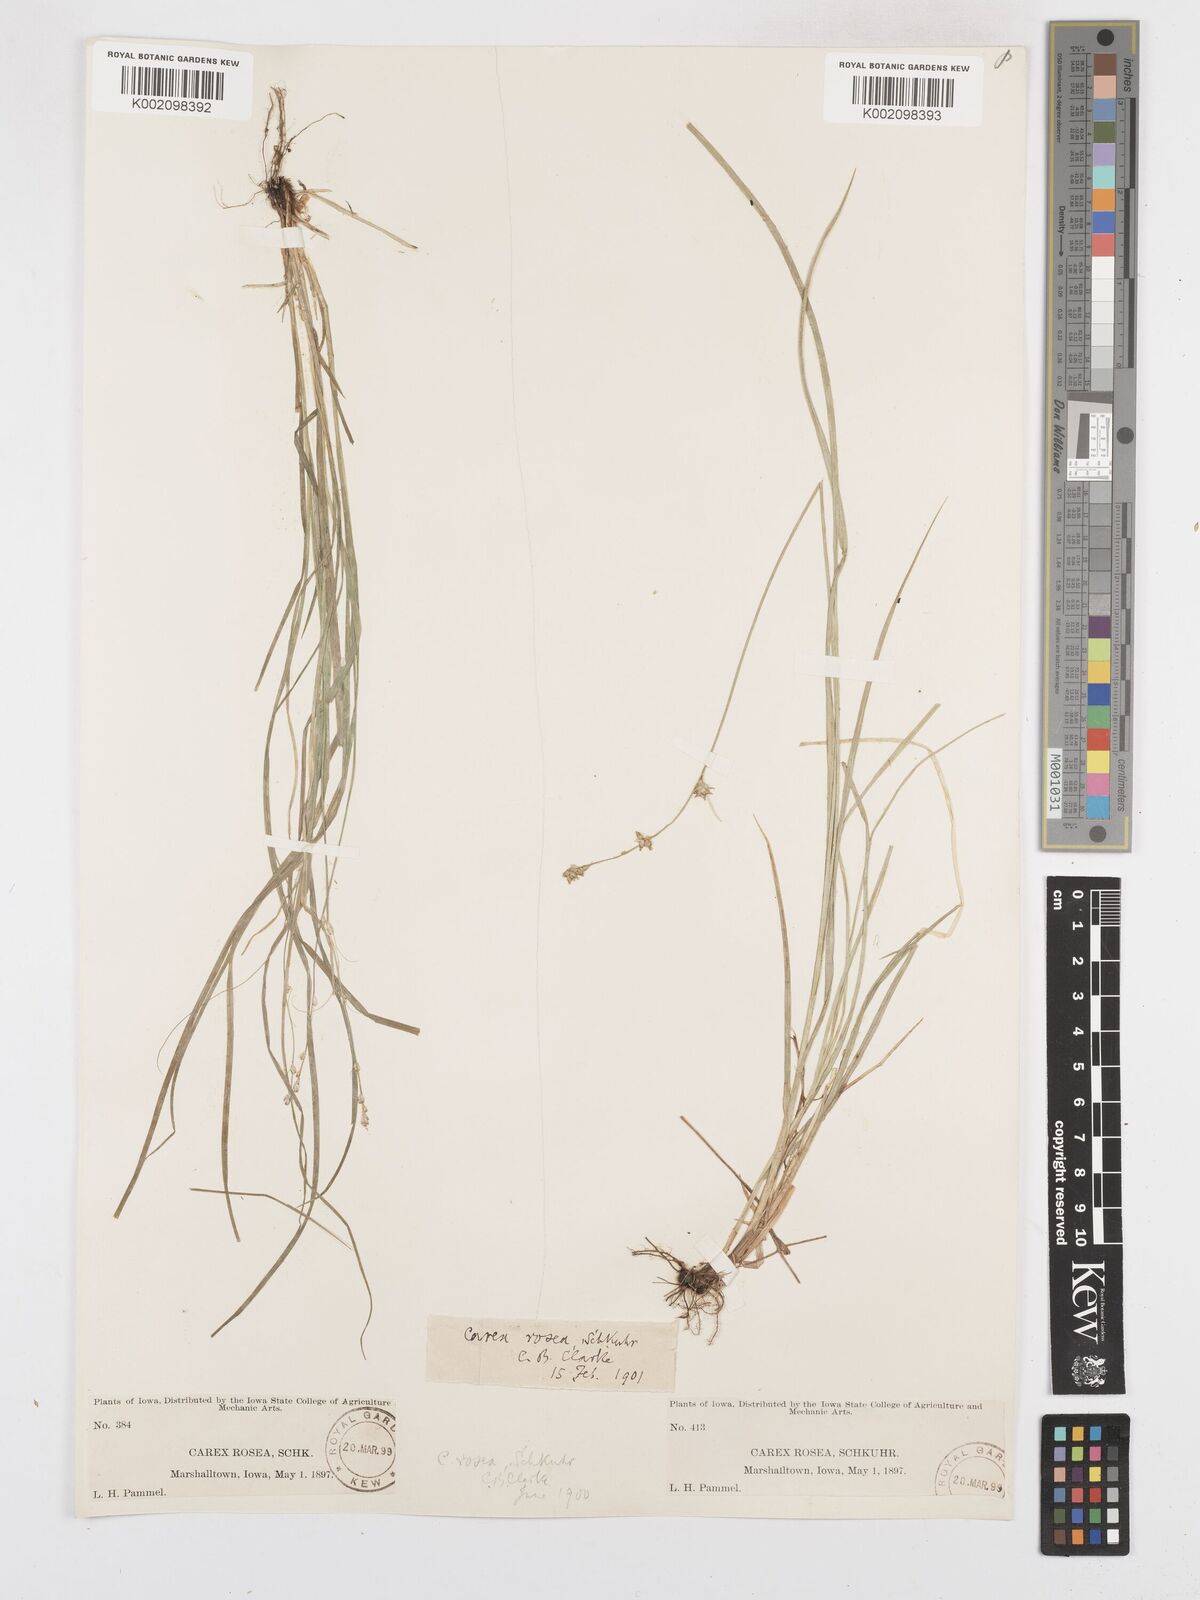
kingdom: Plantae
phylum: Tracheophyta
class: Liliopsida
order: Poales
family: Cyperaceae
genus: Carex
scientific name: Carex rosea
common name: Curly-styled wood sedge
